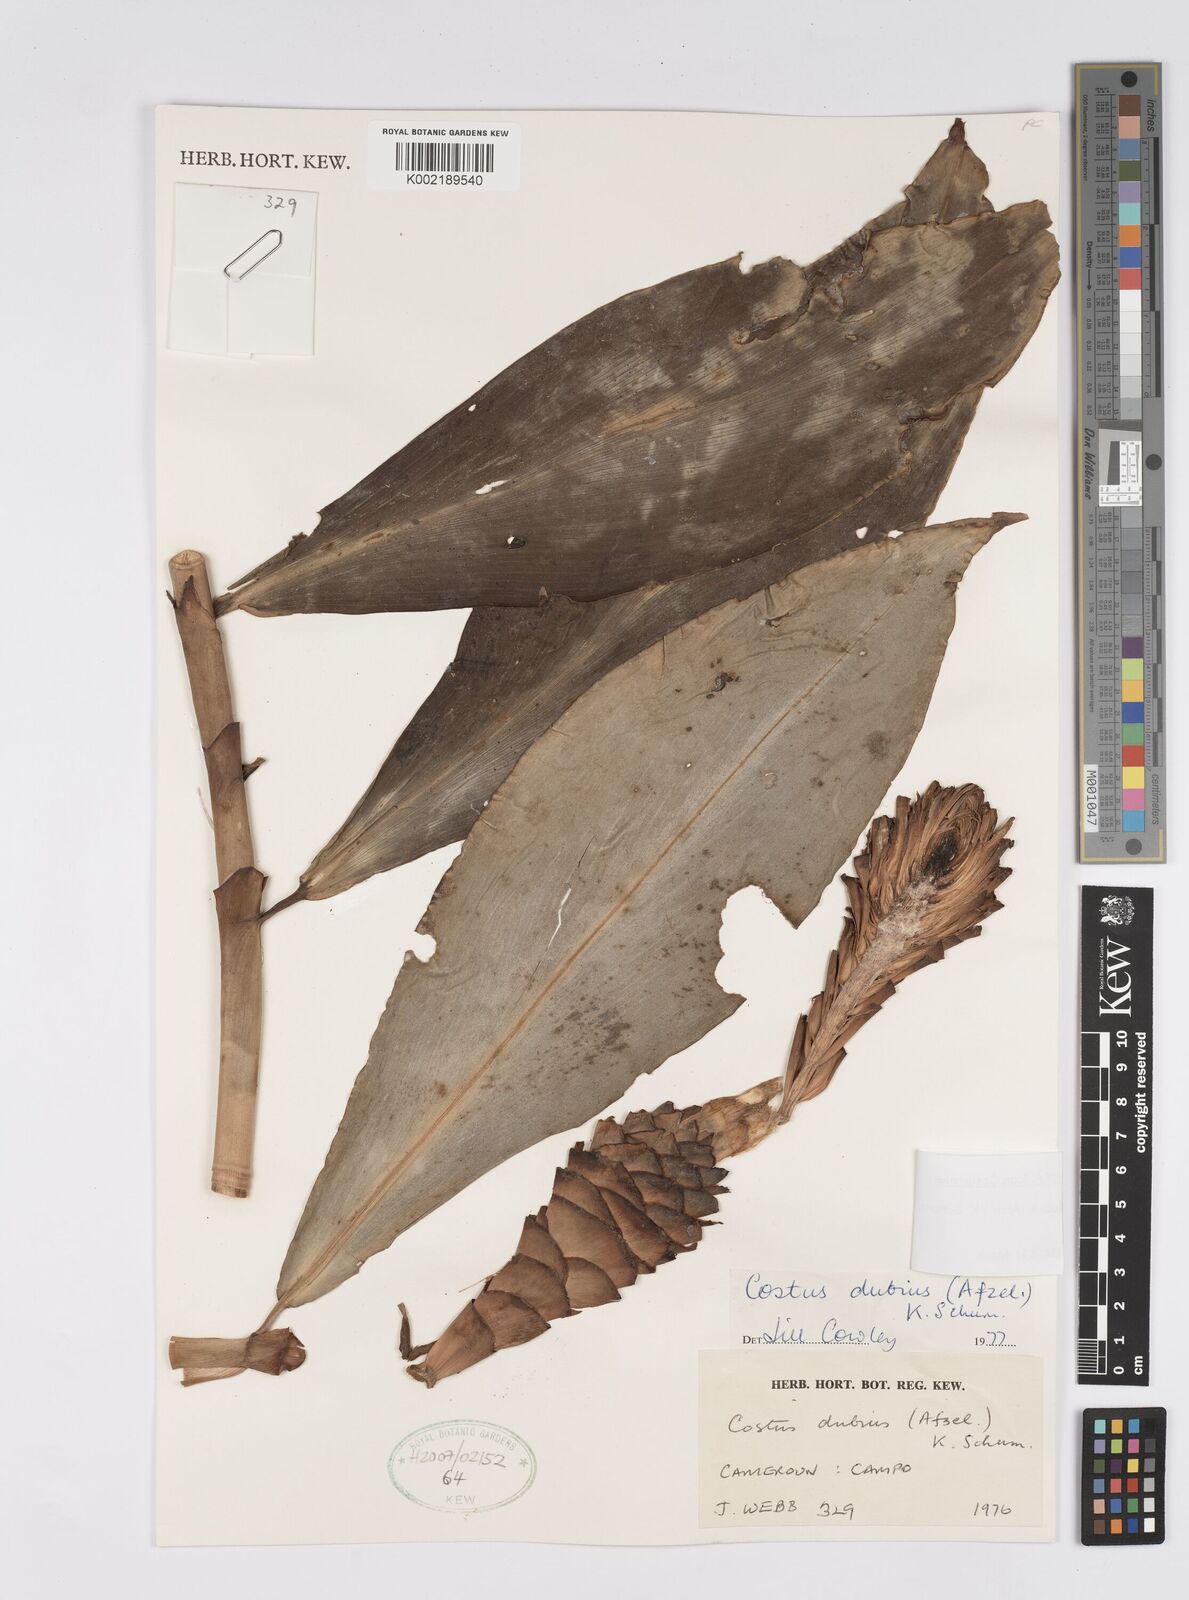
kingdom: Plantae
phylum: Tracheophyta
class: Liliopsida
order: Zingiberales
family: Costaceae
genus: Costus
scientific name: Costus dubius
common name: Costus
